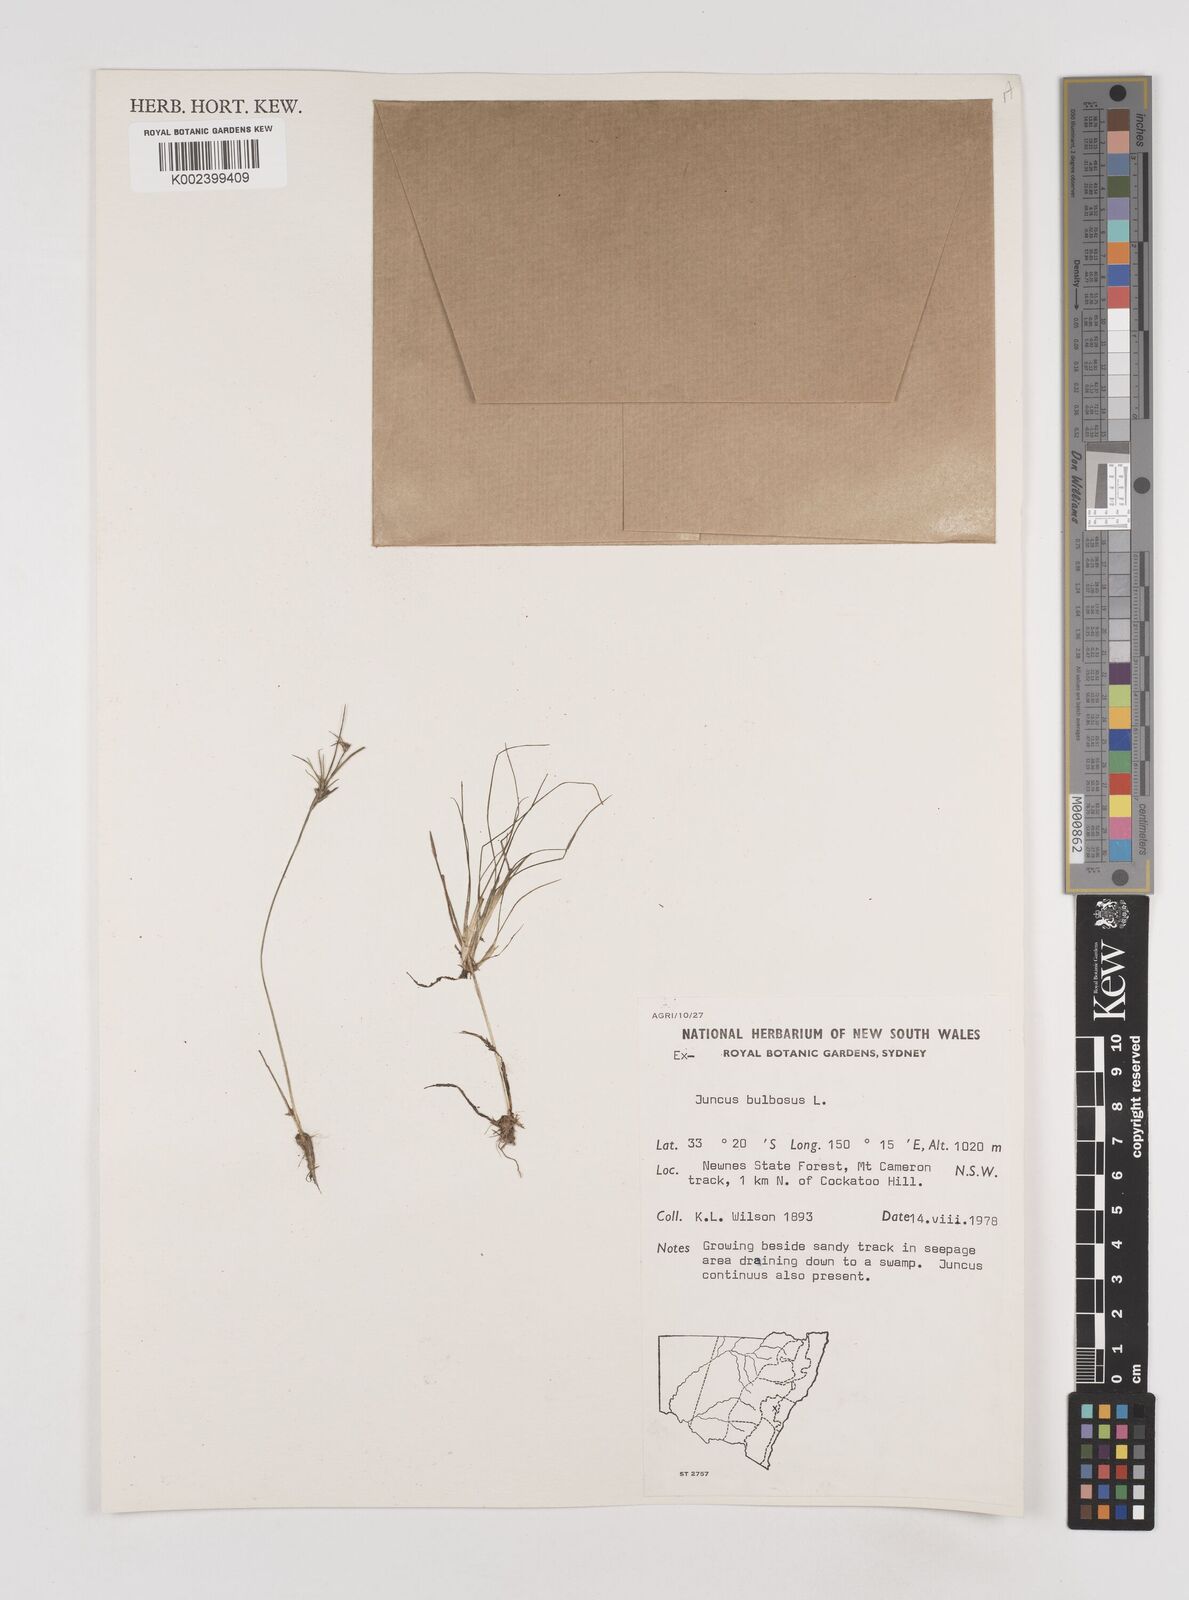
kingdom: Plantae
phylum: Tracheophyta
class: Liliopsida
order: Poales
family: Juncaceae
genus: Juncus
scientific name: Juncus bulbosus
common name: Bulbous rush
